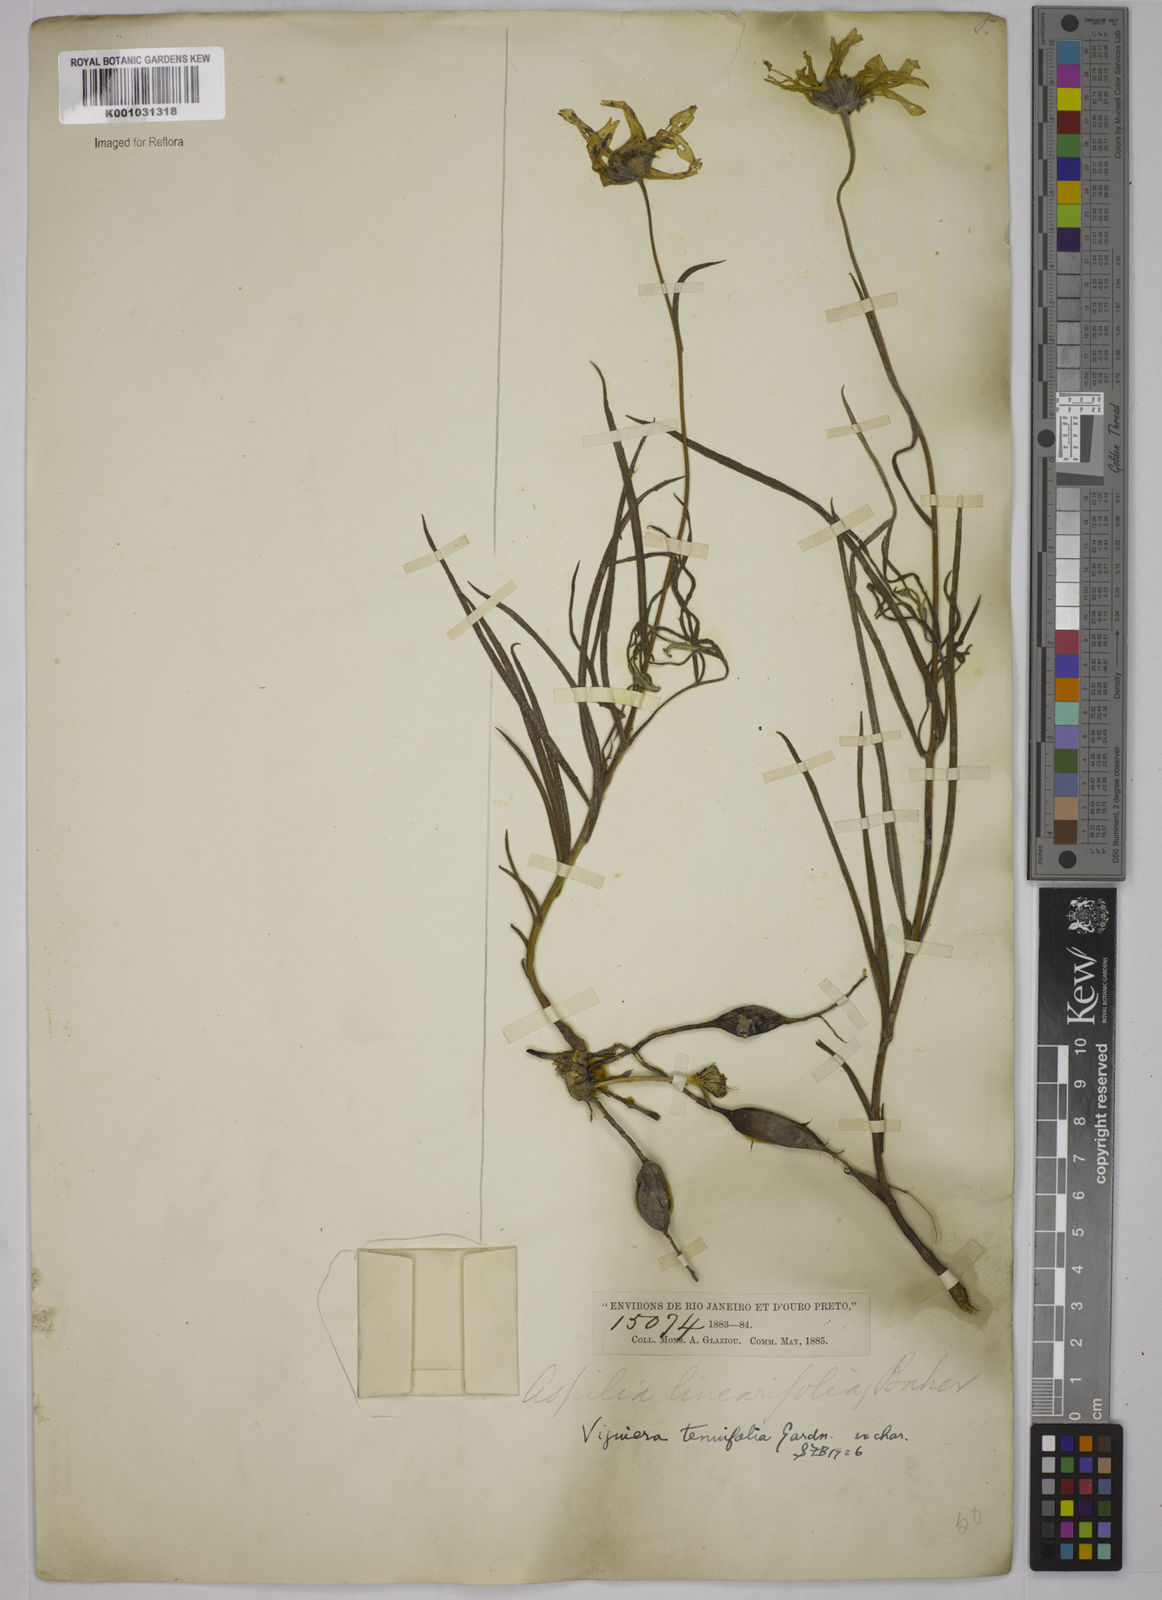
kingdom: Plantae
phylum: Tracheophyta
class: Magnoliopsida
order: Asterales
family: Asteraceae
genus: Aldama
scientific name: Aldama tenuifolia
